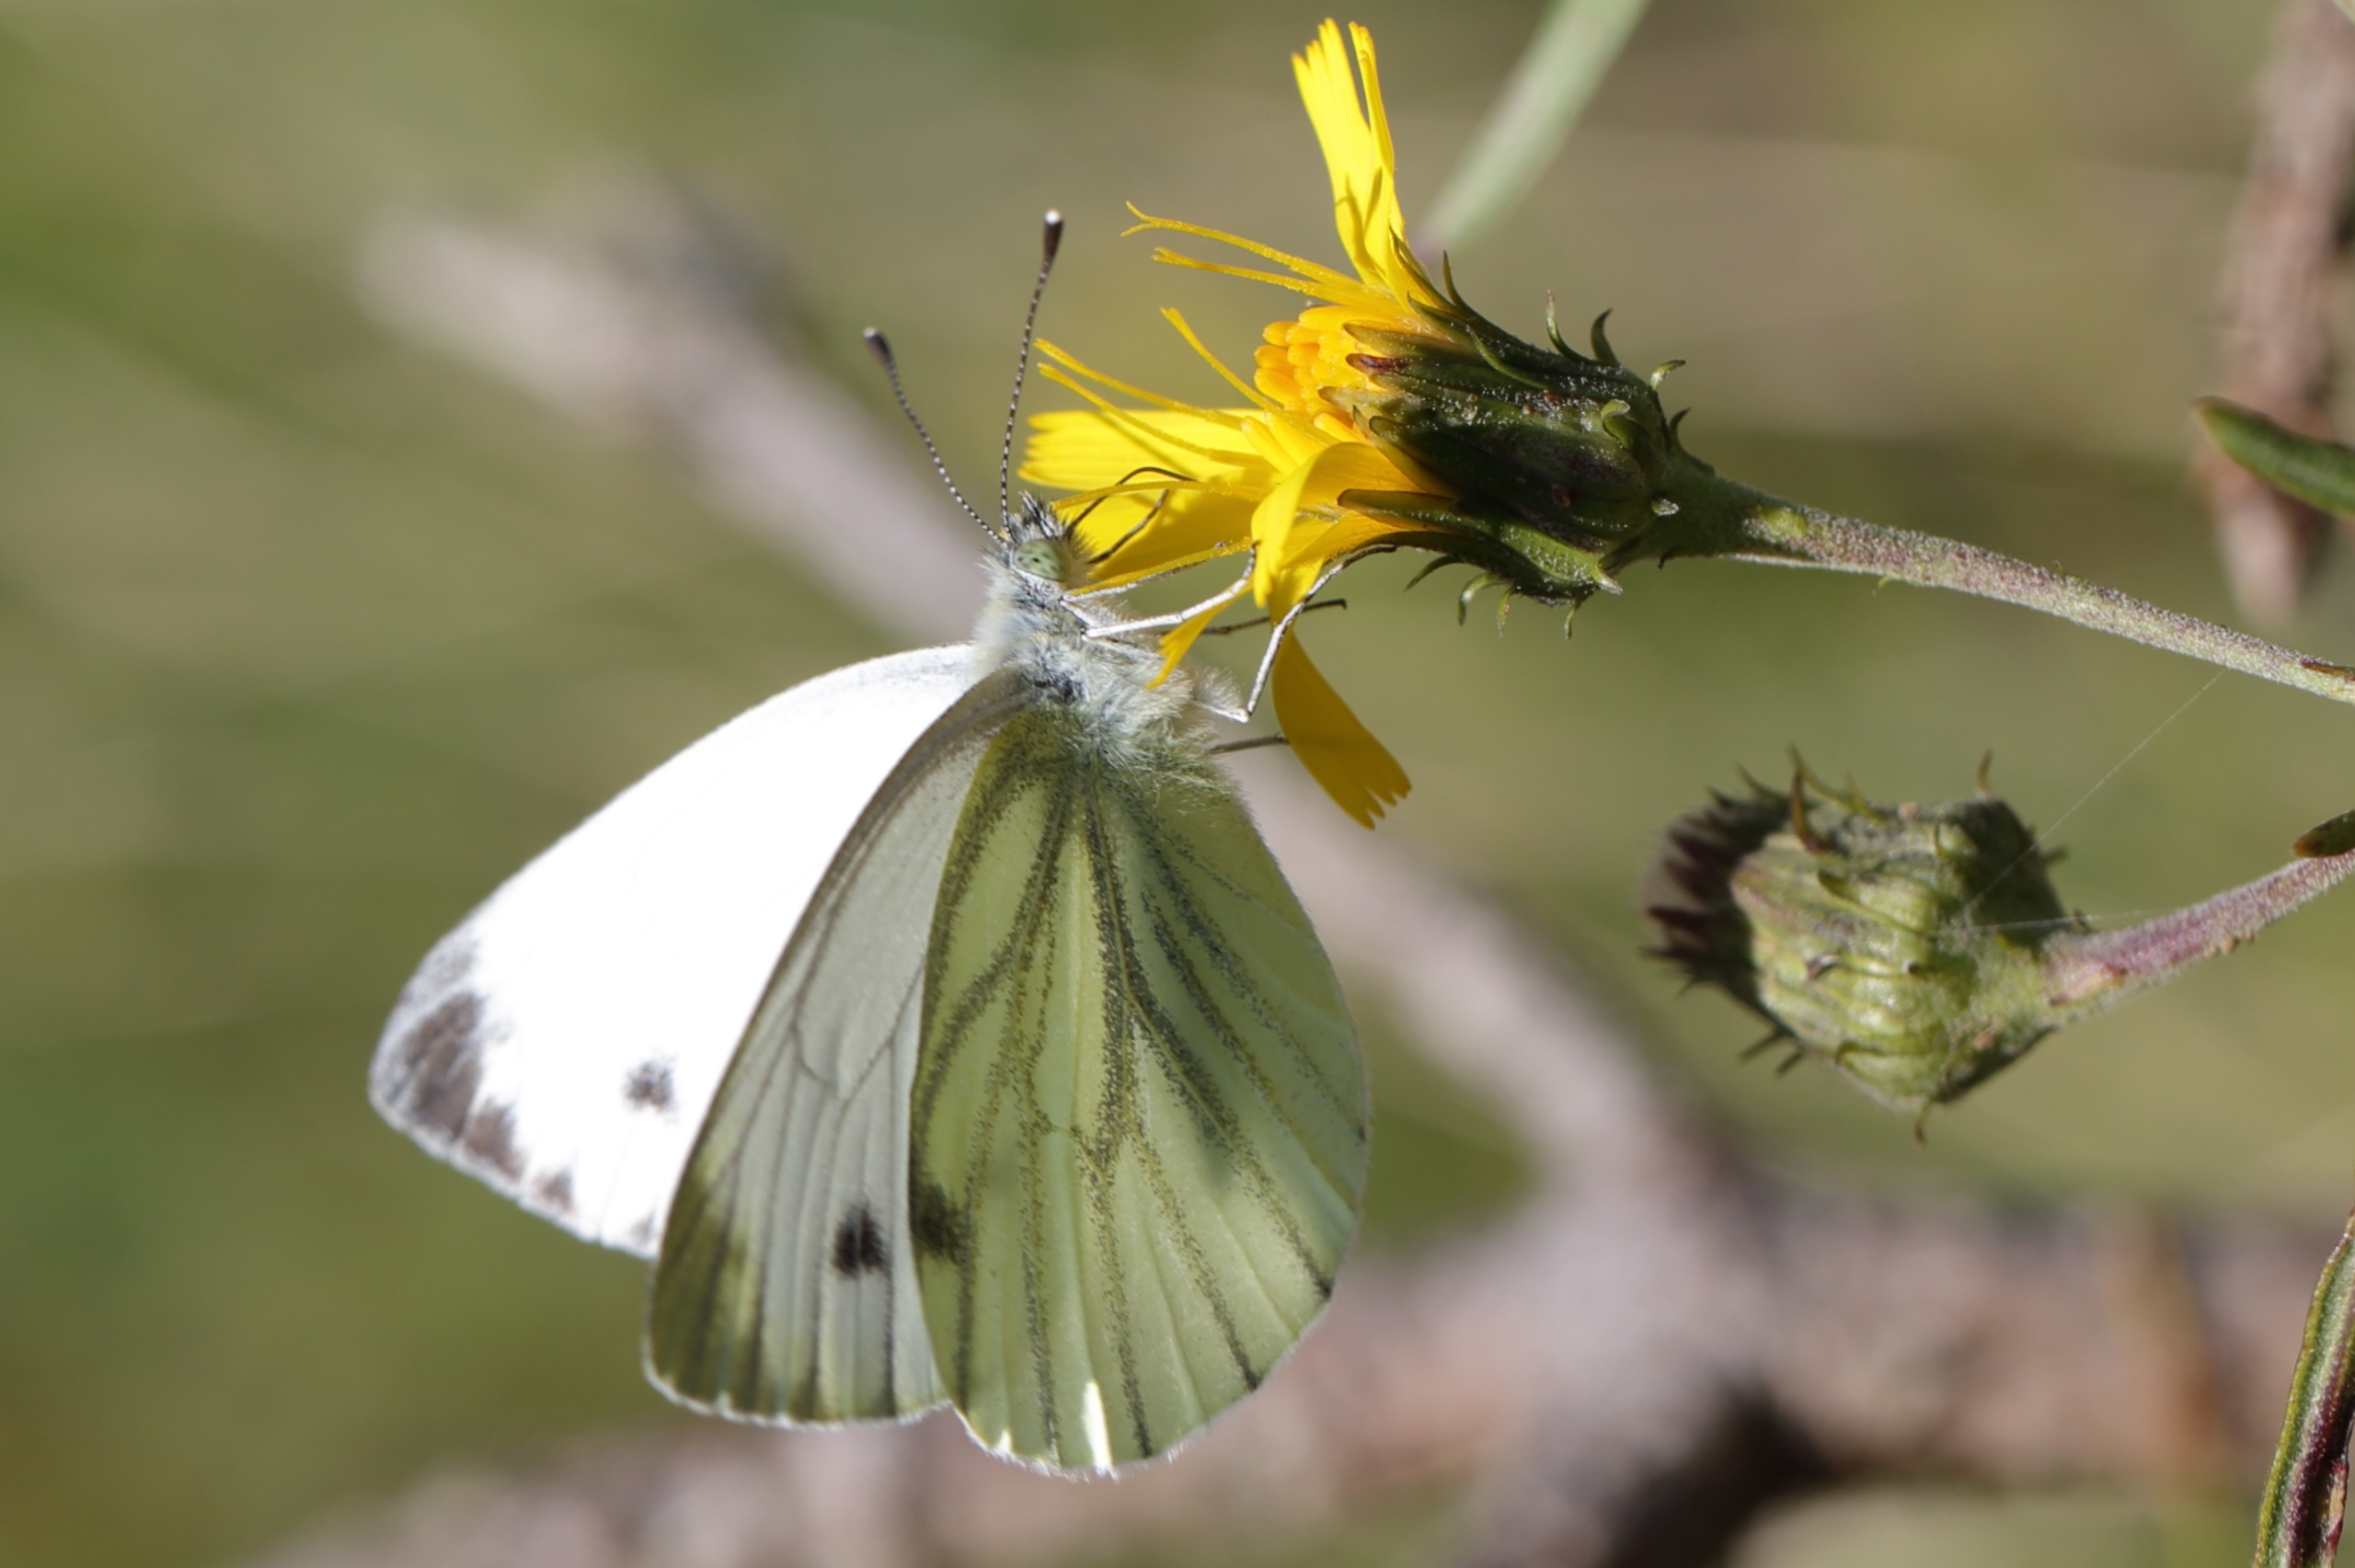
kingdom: Animalia
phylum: Arthropoda
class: Insecta
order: Lepidoptera
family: Pieridae
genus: Pieris
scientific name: Pieris napi
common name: Grønåret kålsommerfugl
